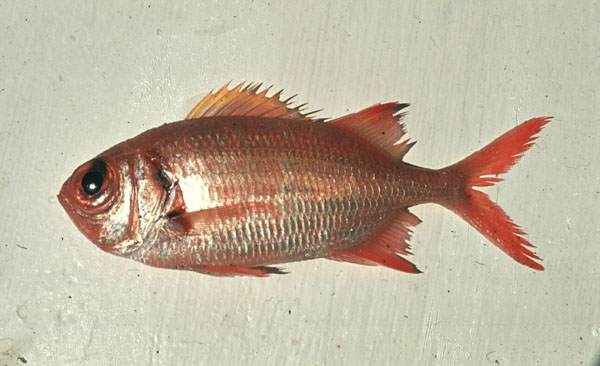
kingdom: Animalia
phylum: Chordata
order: Beryciformes
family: Holocentridae
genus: Myripristis
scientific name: Myripristis kuntee
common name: Epaulette soldierfish
